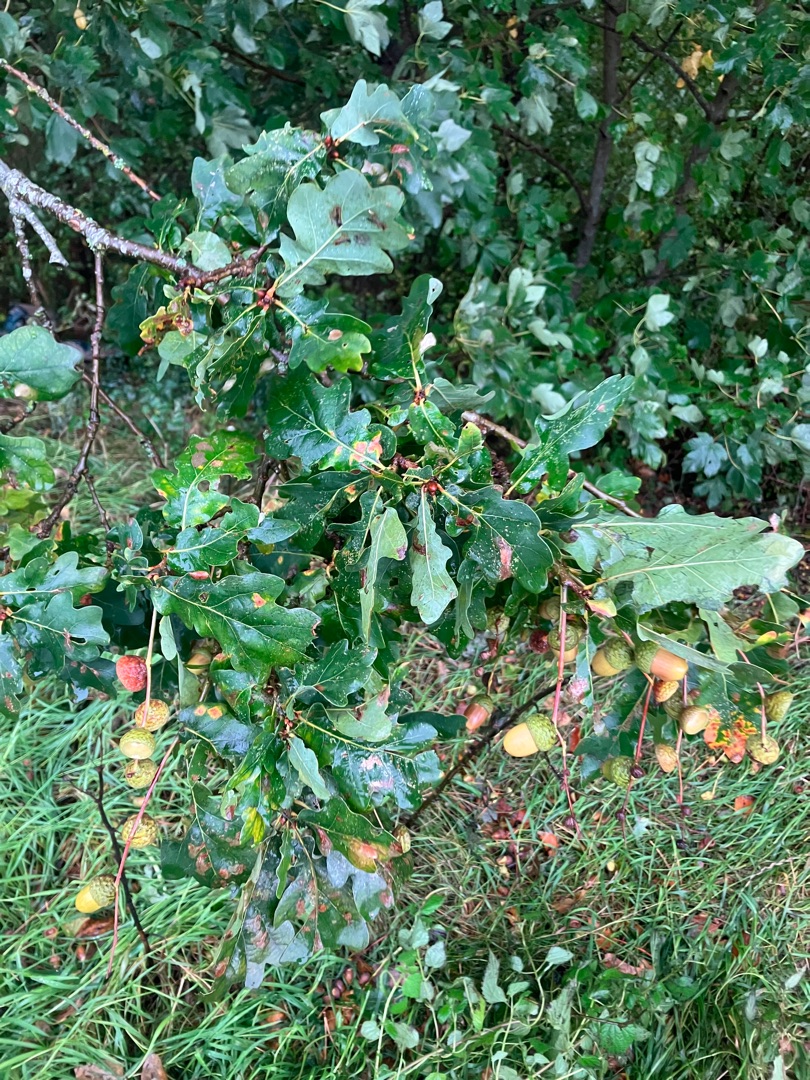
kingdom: Plantae
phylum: Tracheophyta
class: Magnoliopsida
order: Fagales
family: Fagaceae
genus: Quercus
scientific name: Quercus robur
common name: Stilk-eg/almindelig eg
